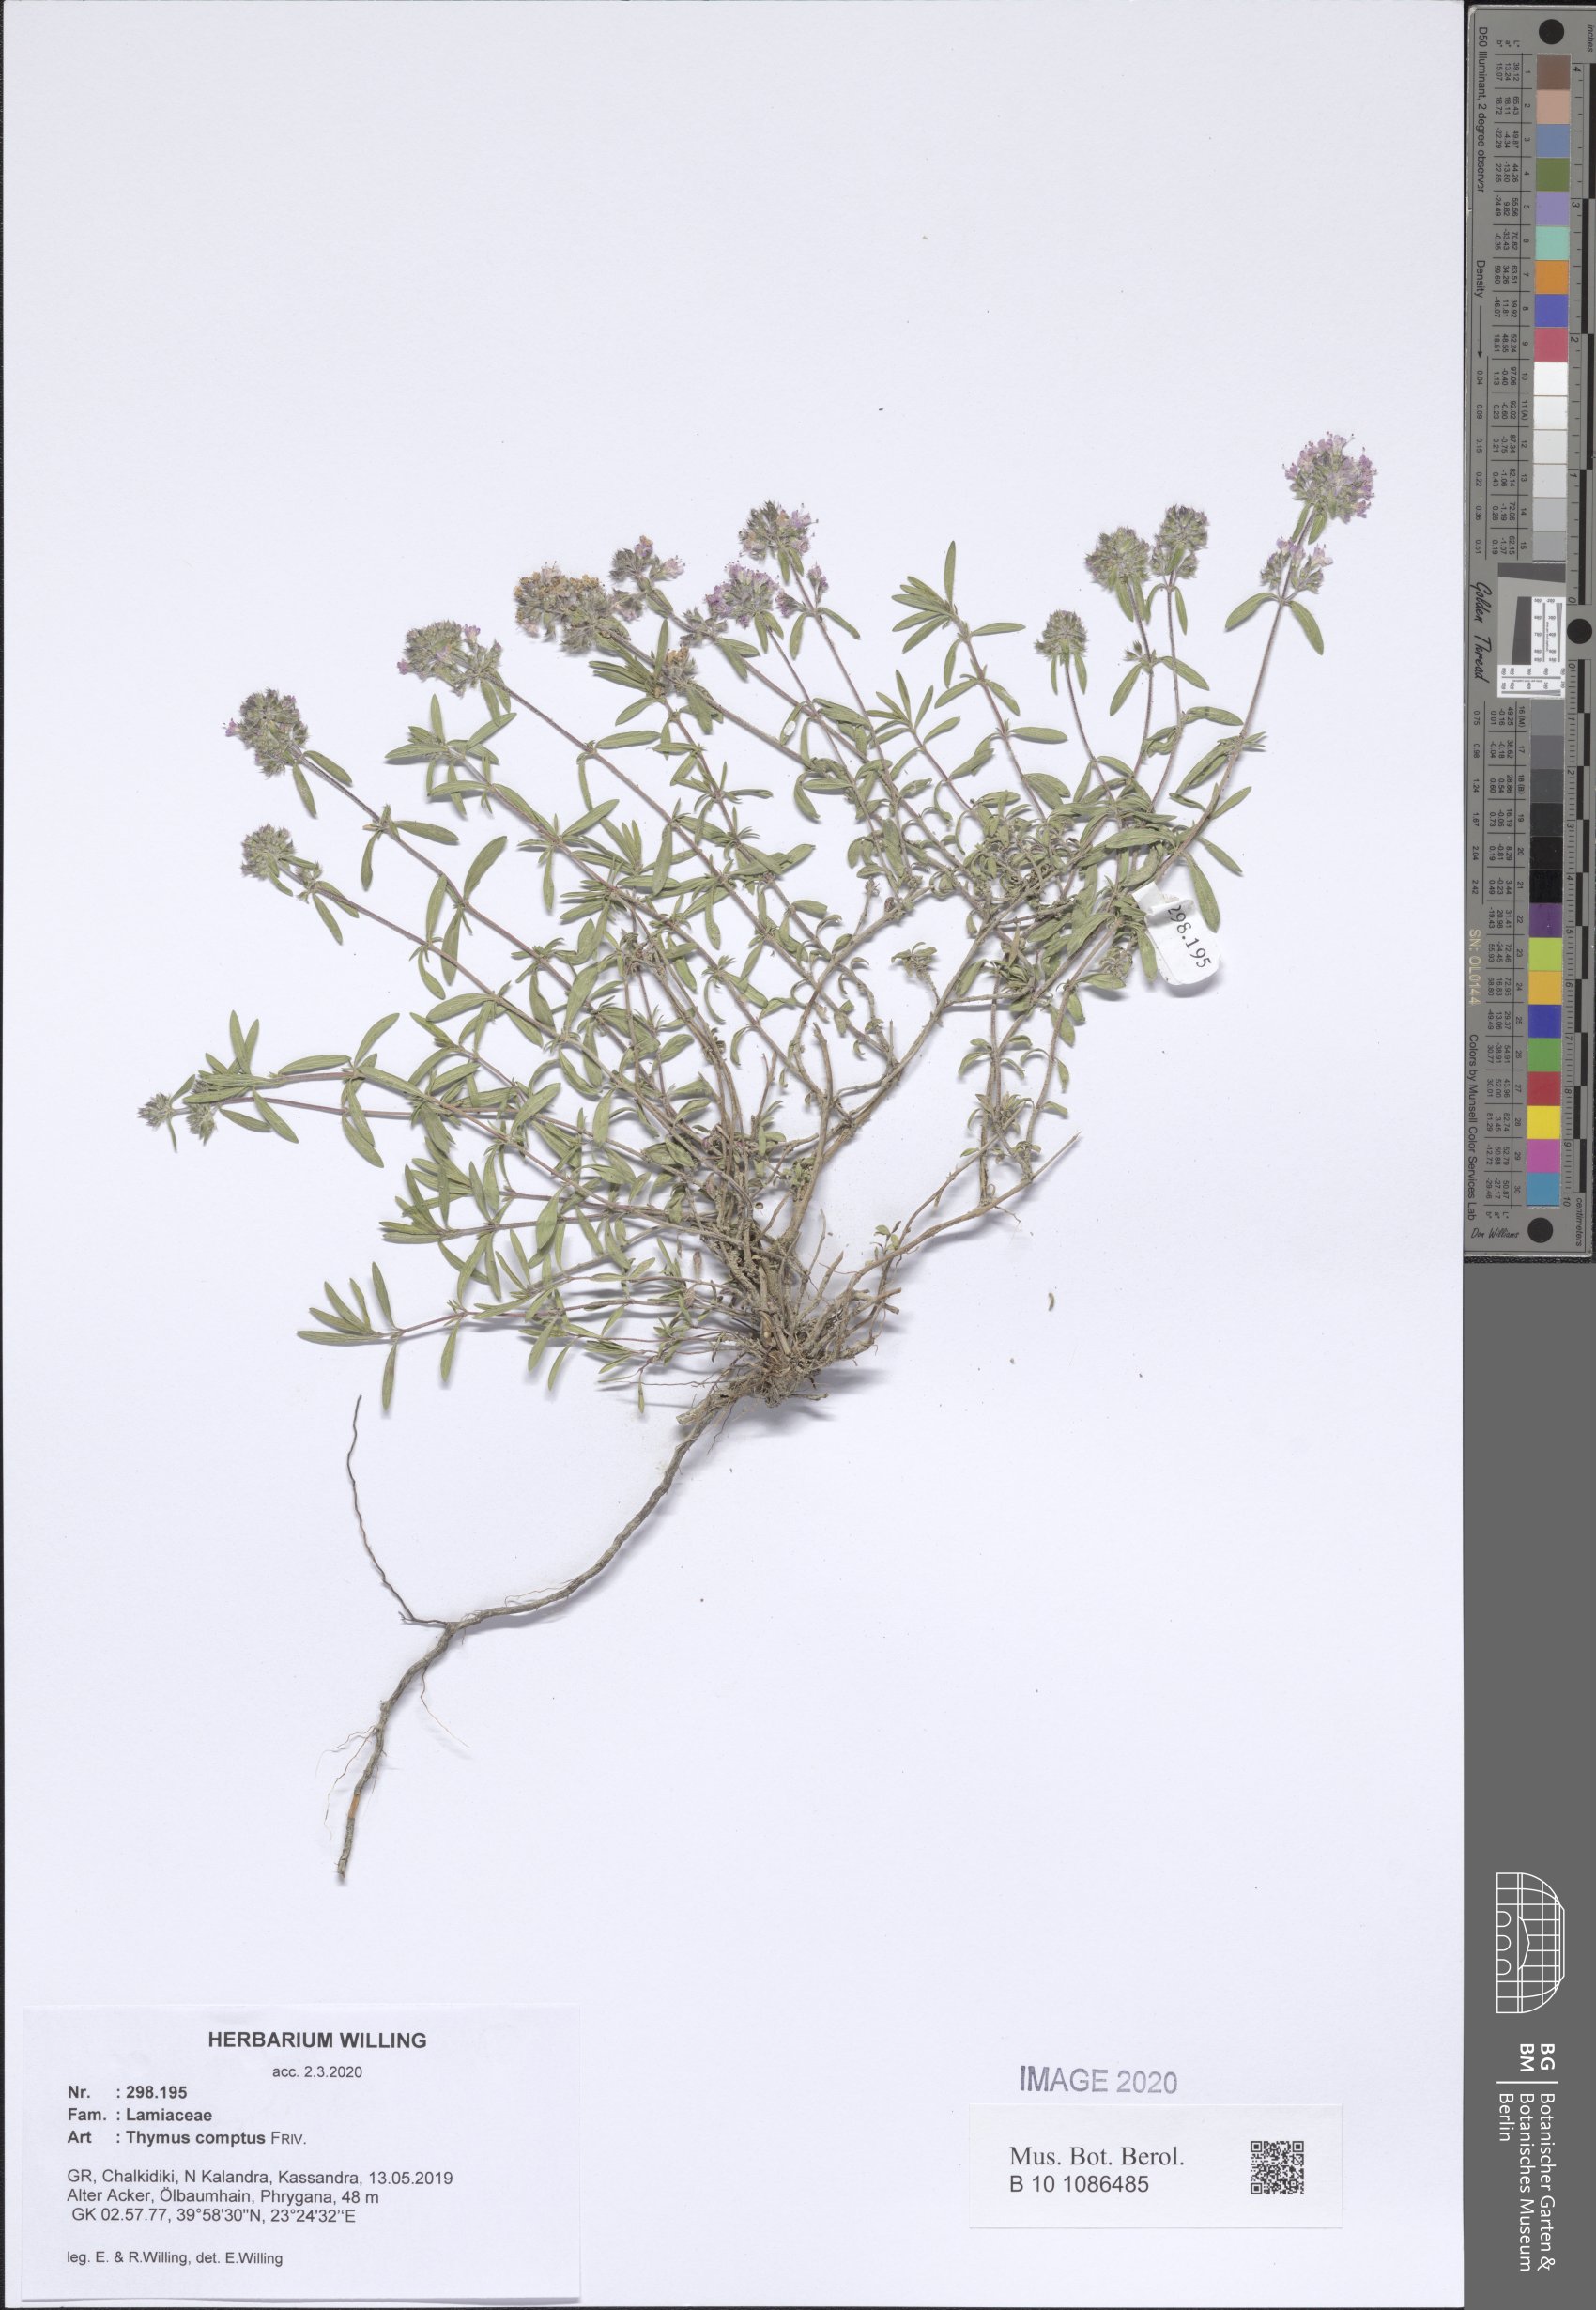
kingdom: Plantae
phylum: Tracheophyta
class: Magnoliopsida
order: Lamiales
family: Lamiaceae
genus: Thymus
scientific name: Thymus sibthorpii
